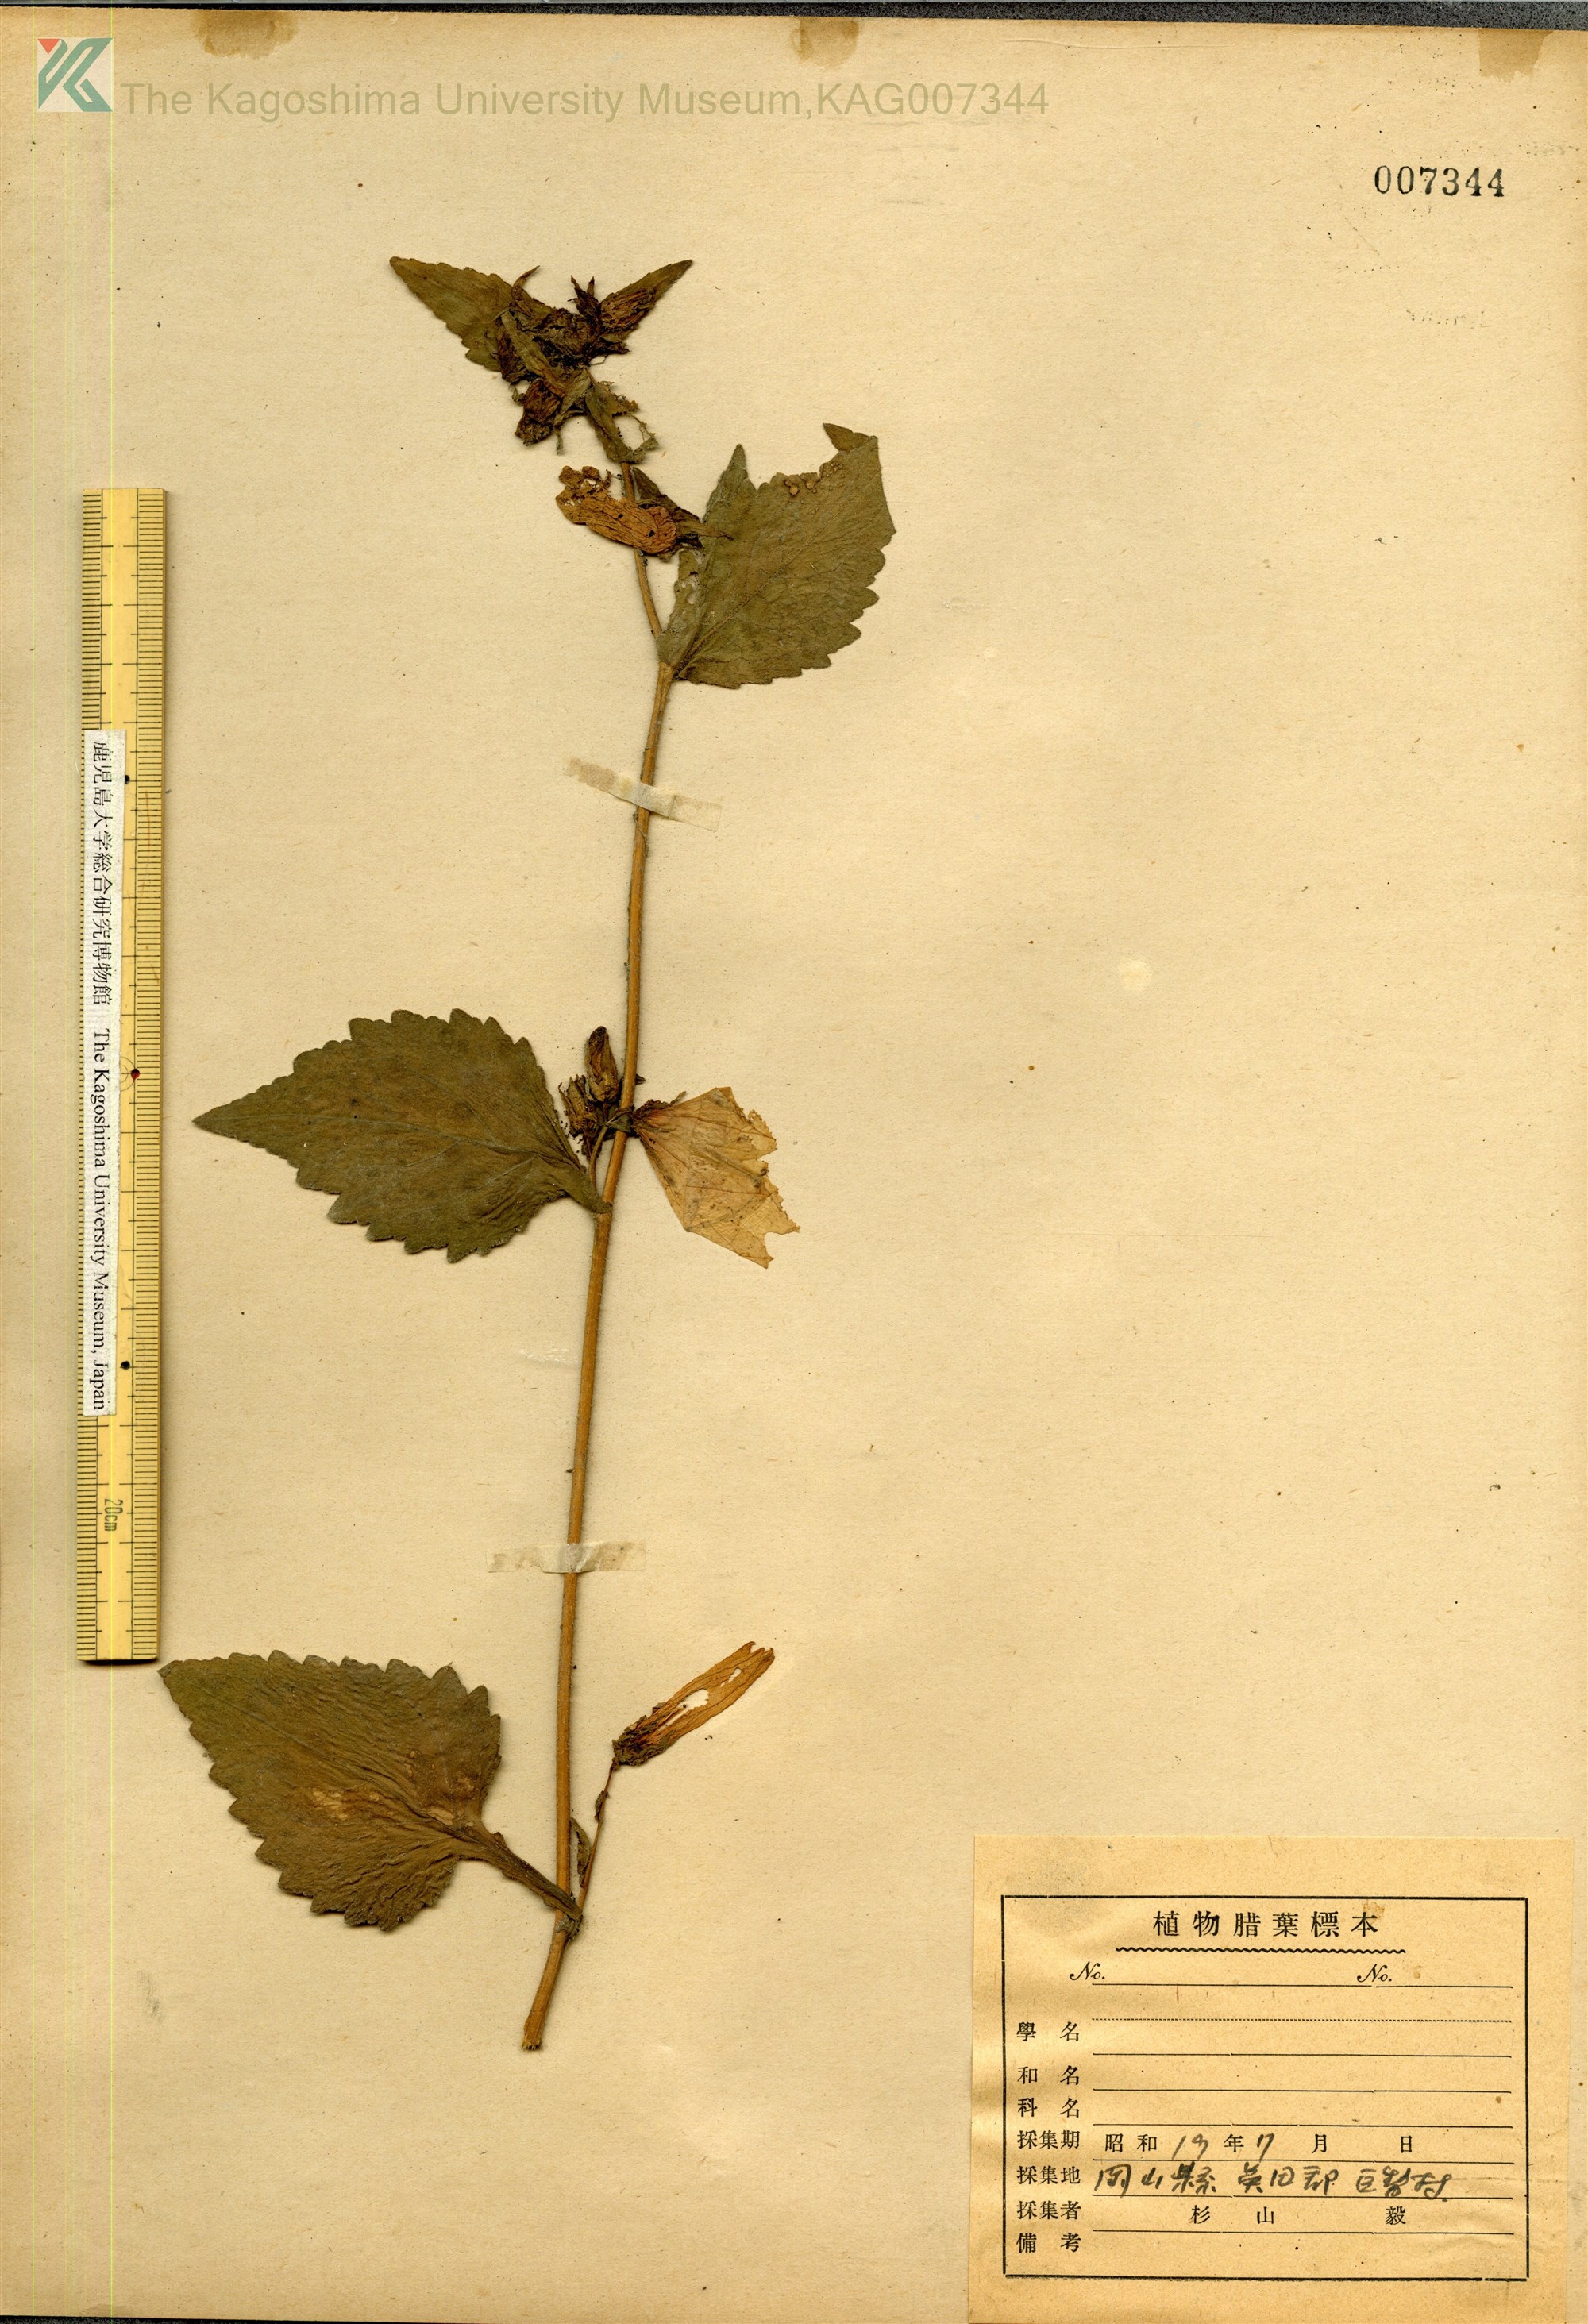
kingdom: Plantae
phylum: Tracheophyta
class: Magnoliopsida
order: Asterales
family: Campanulaceae
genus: Campanula
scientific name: Campanula punctata
